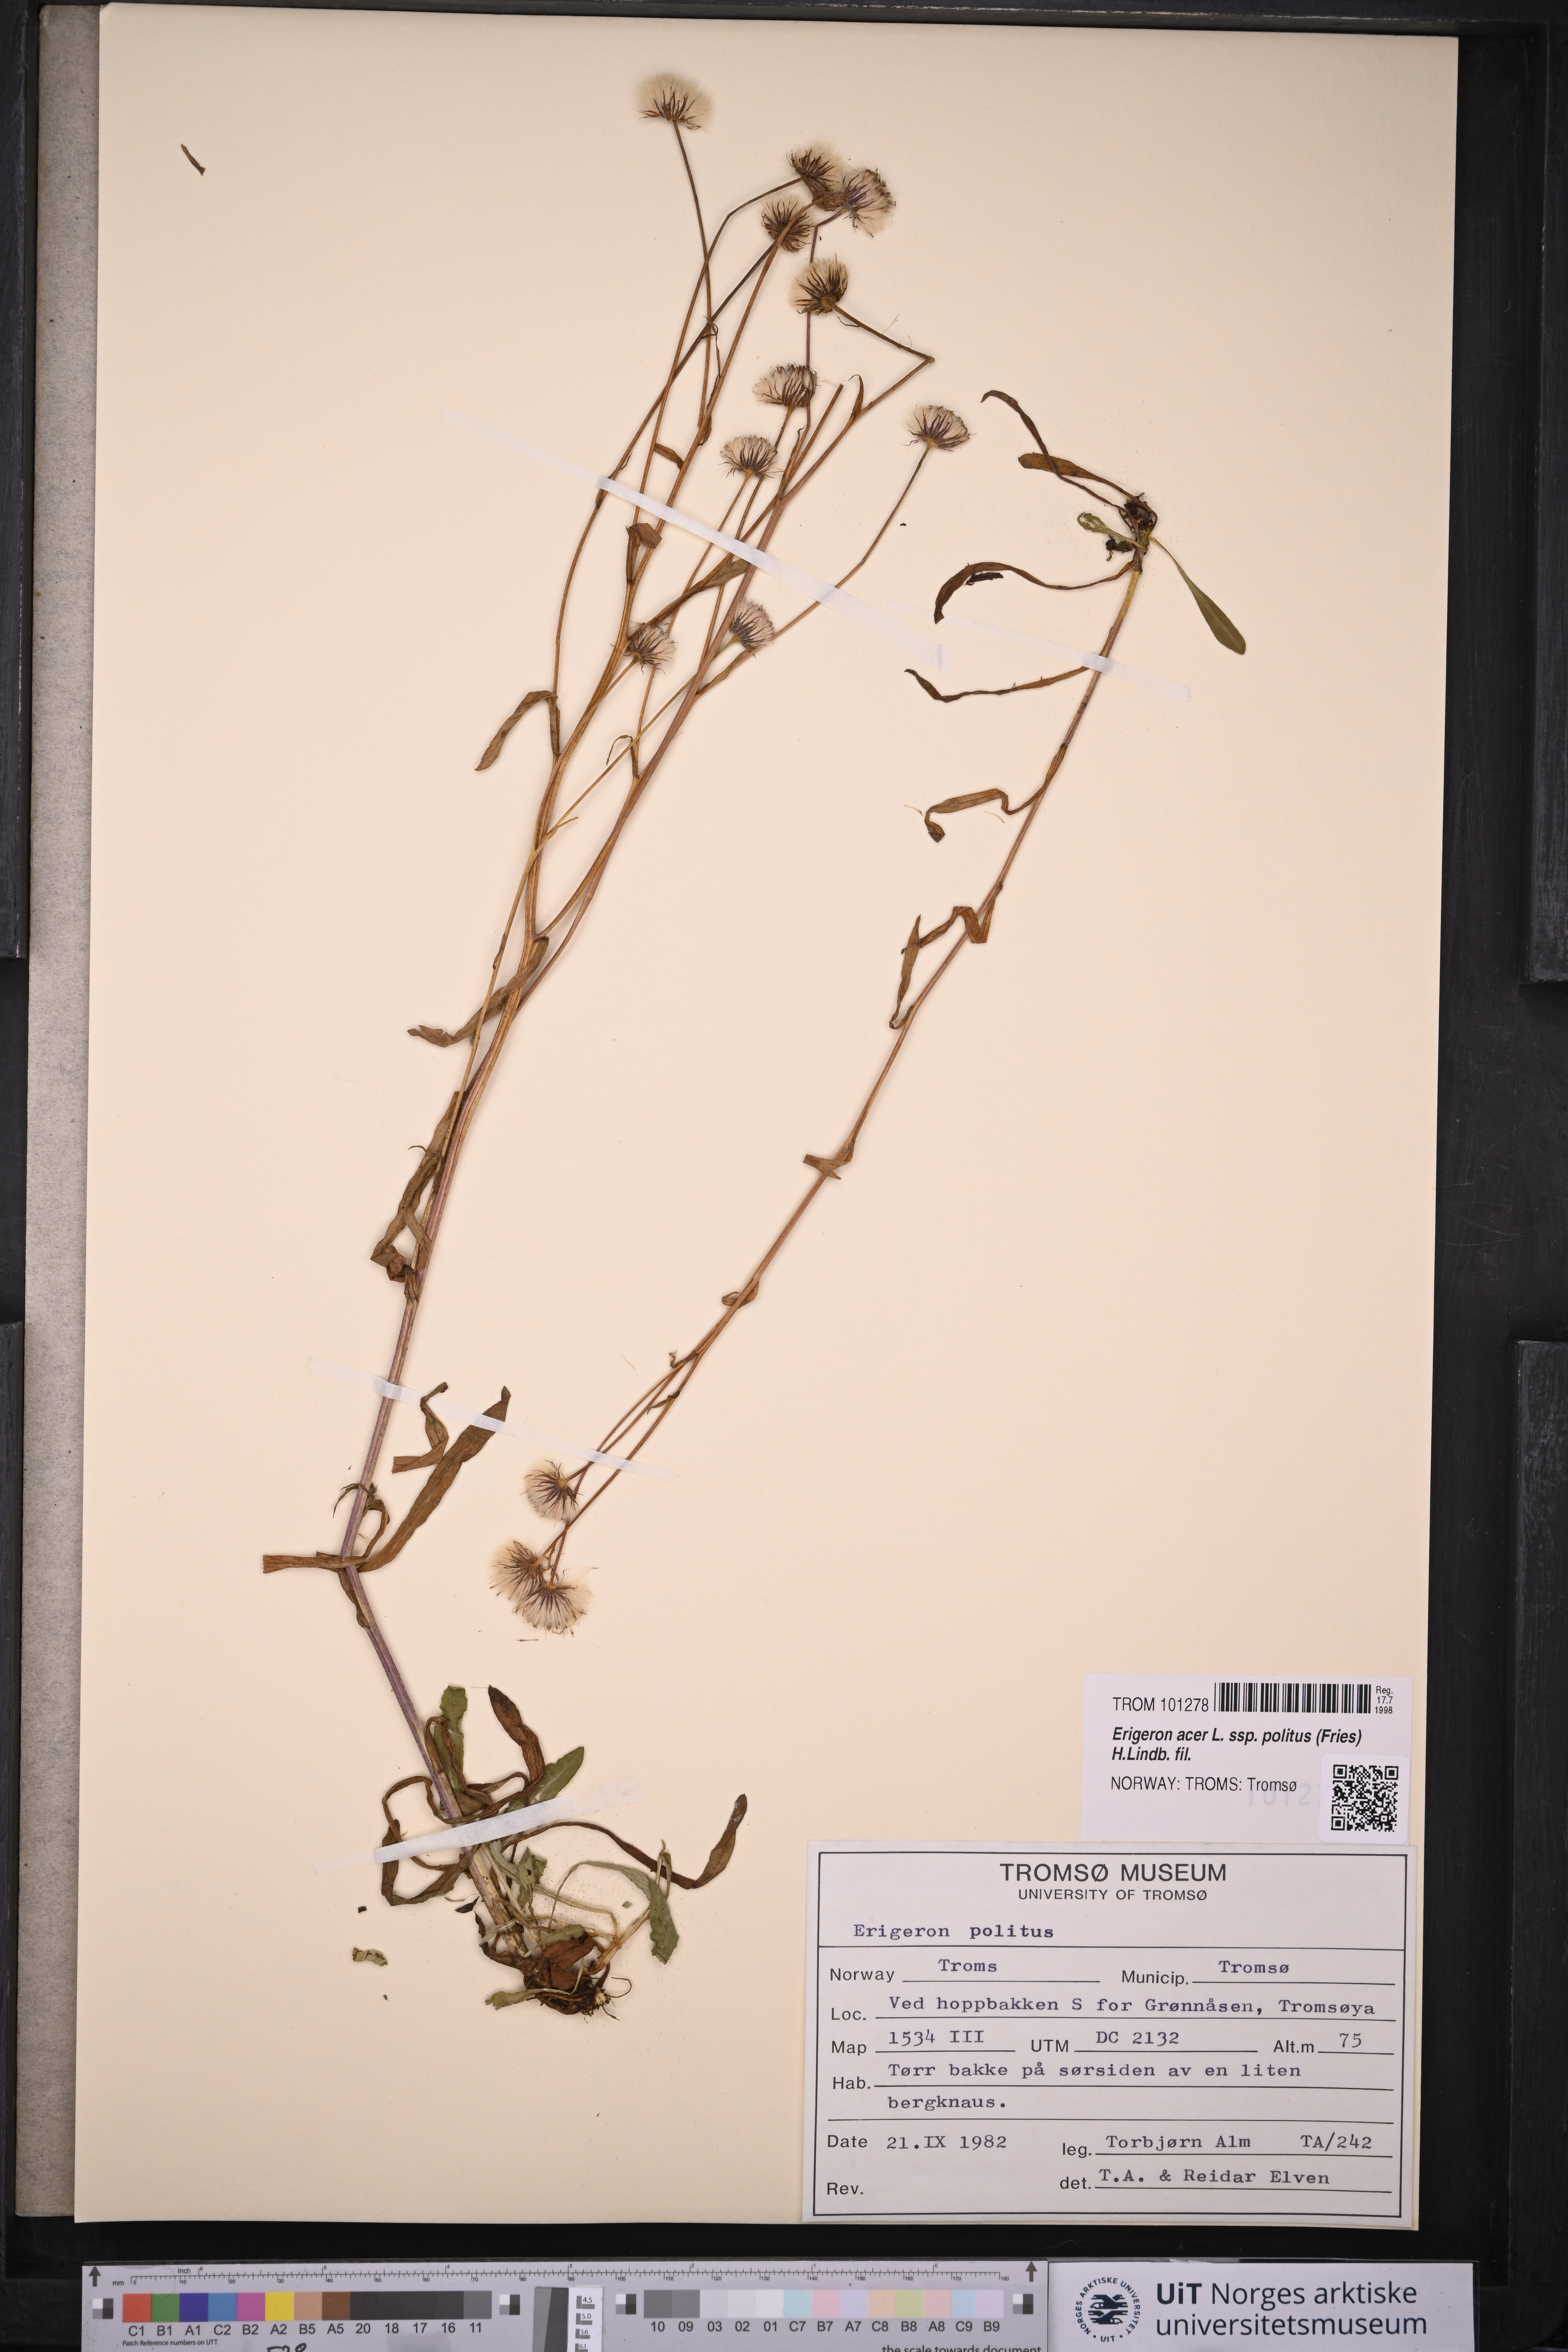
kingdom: Plantae
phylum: Tracheophyta
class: Magnoliopsida
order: Asterales
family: Asteraceae
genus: Erigeron
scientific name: Erigeron politus
